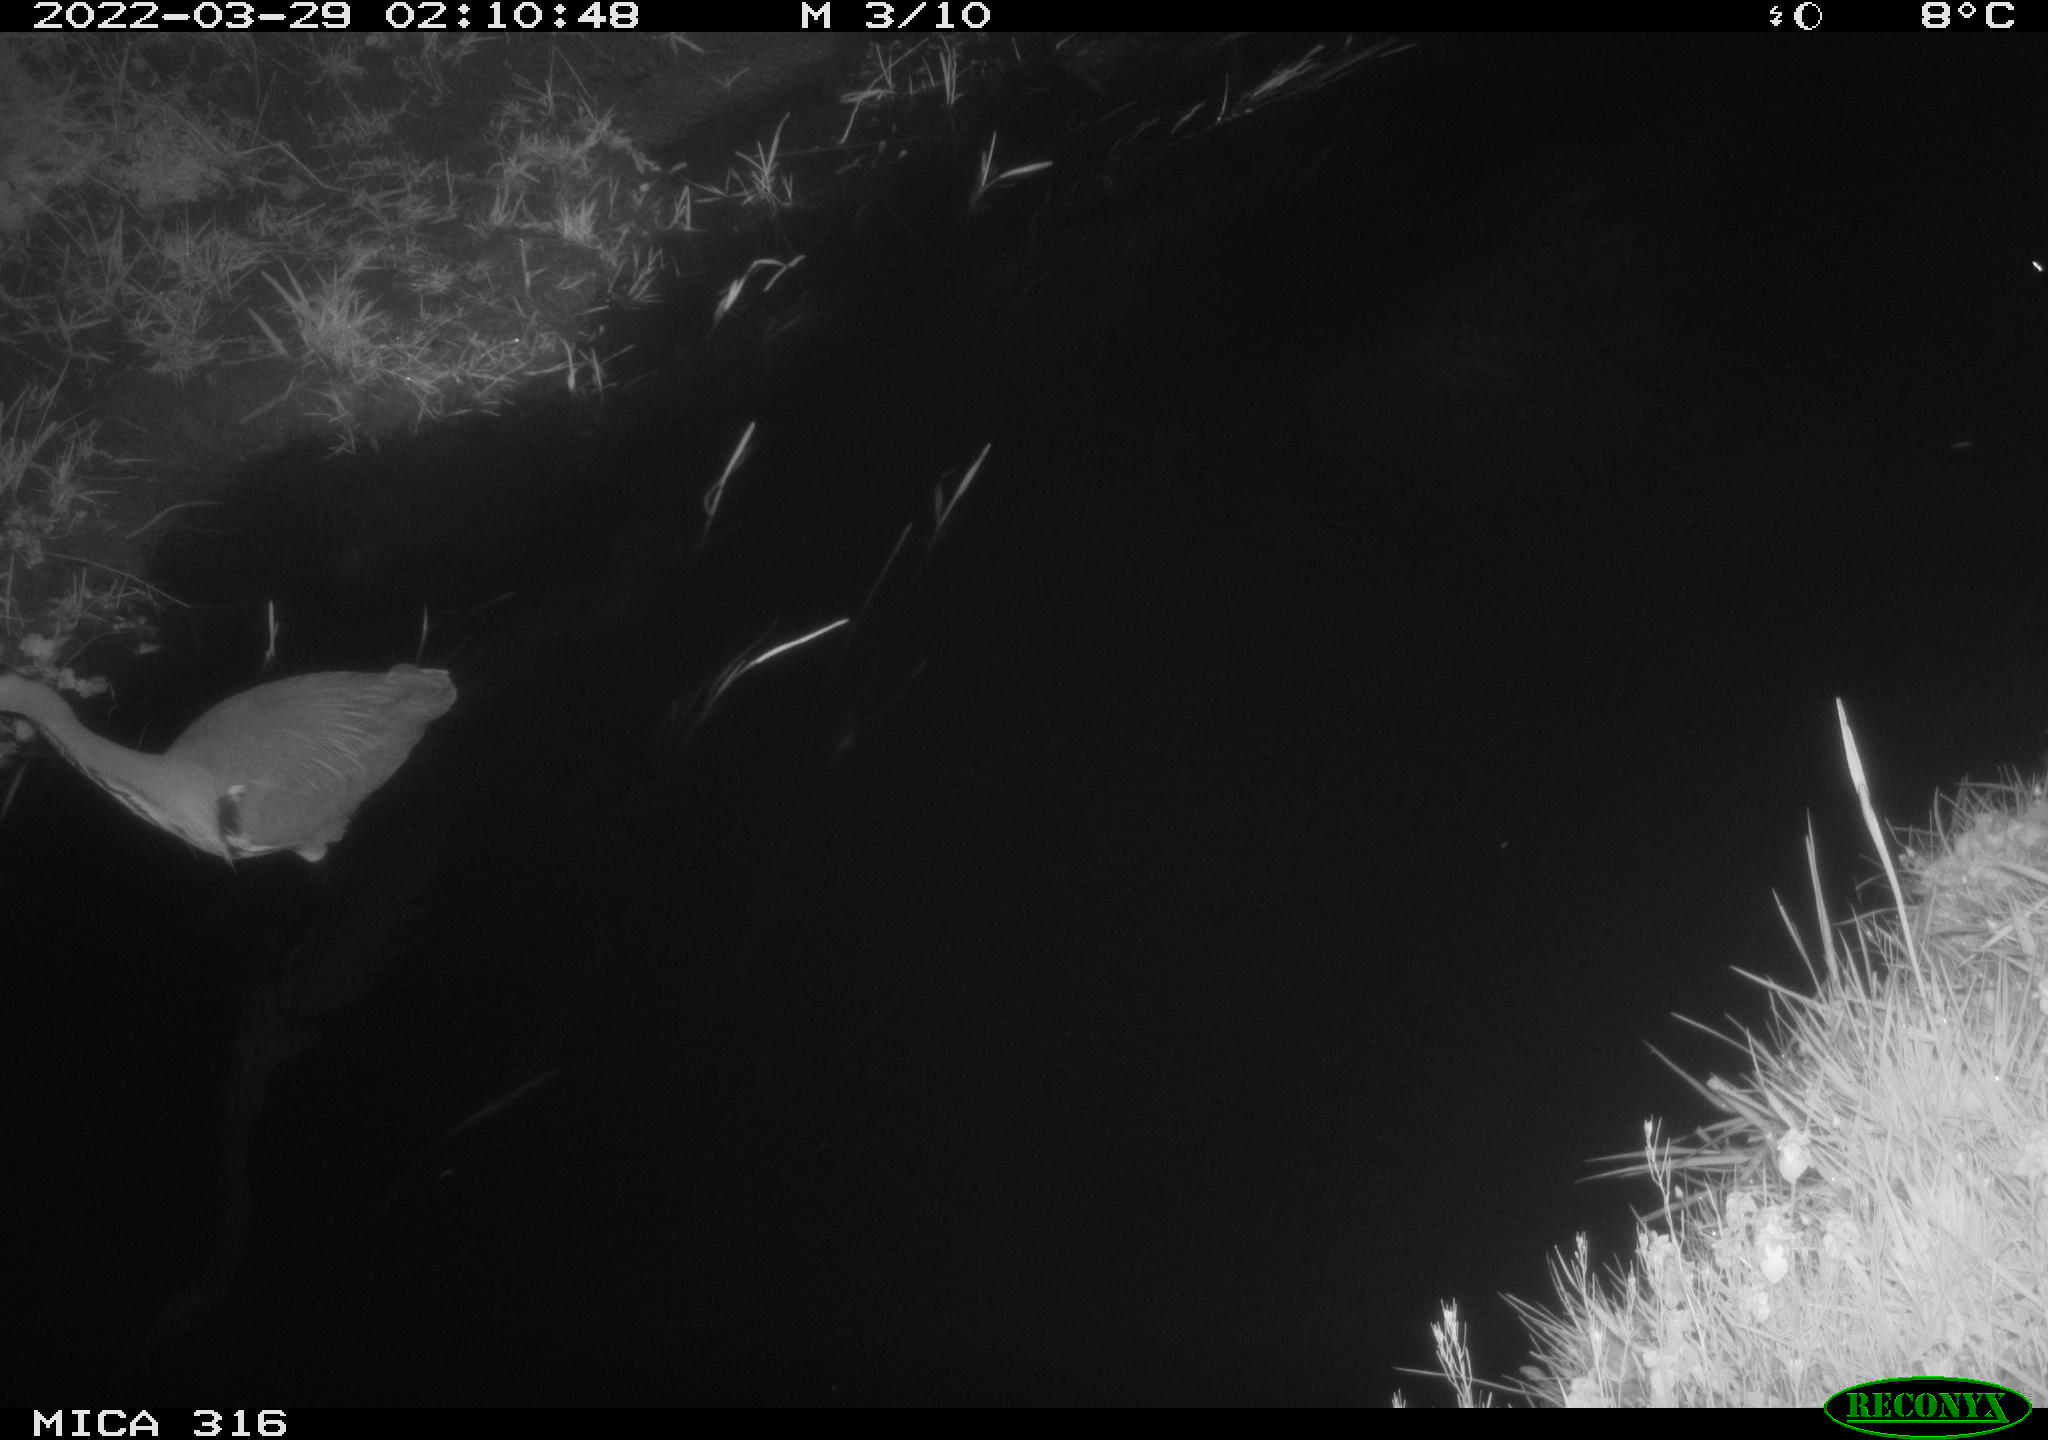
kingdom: Animalia
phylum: Chordata
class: Aves
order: Pelecaniformes
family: Ardeidae
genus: Ardea
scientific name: Ardea cinerea
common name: Grey heron
